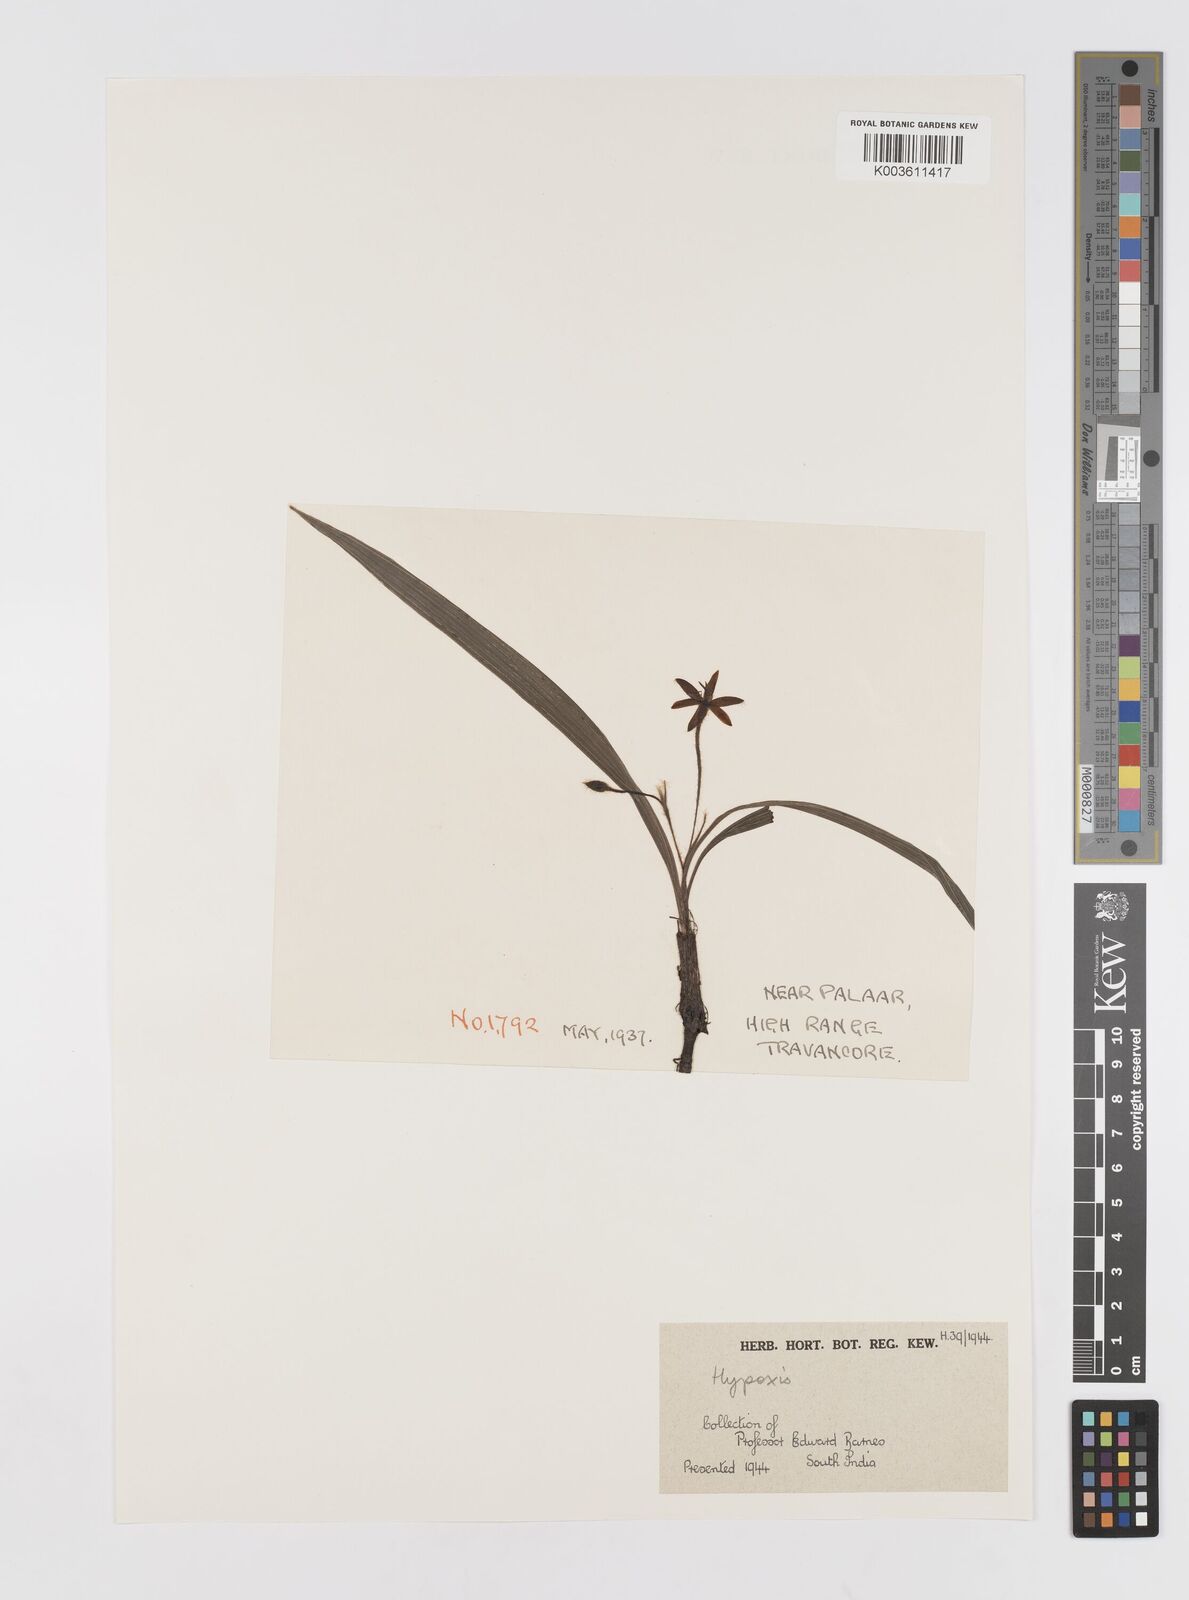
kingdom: Plantae
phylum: Tracheophyta
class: Liliopsida
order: Asparagales
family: Hypoxidaceae
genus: Hypoxis
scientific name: Hypoxis aurea
